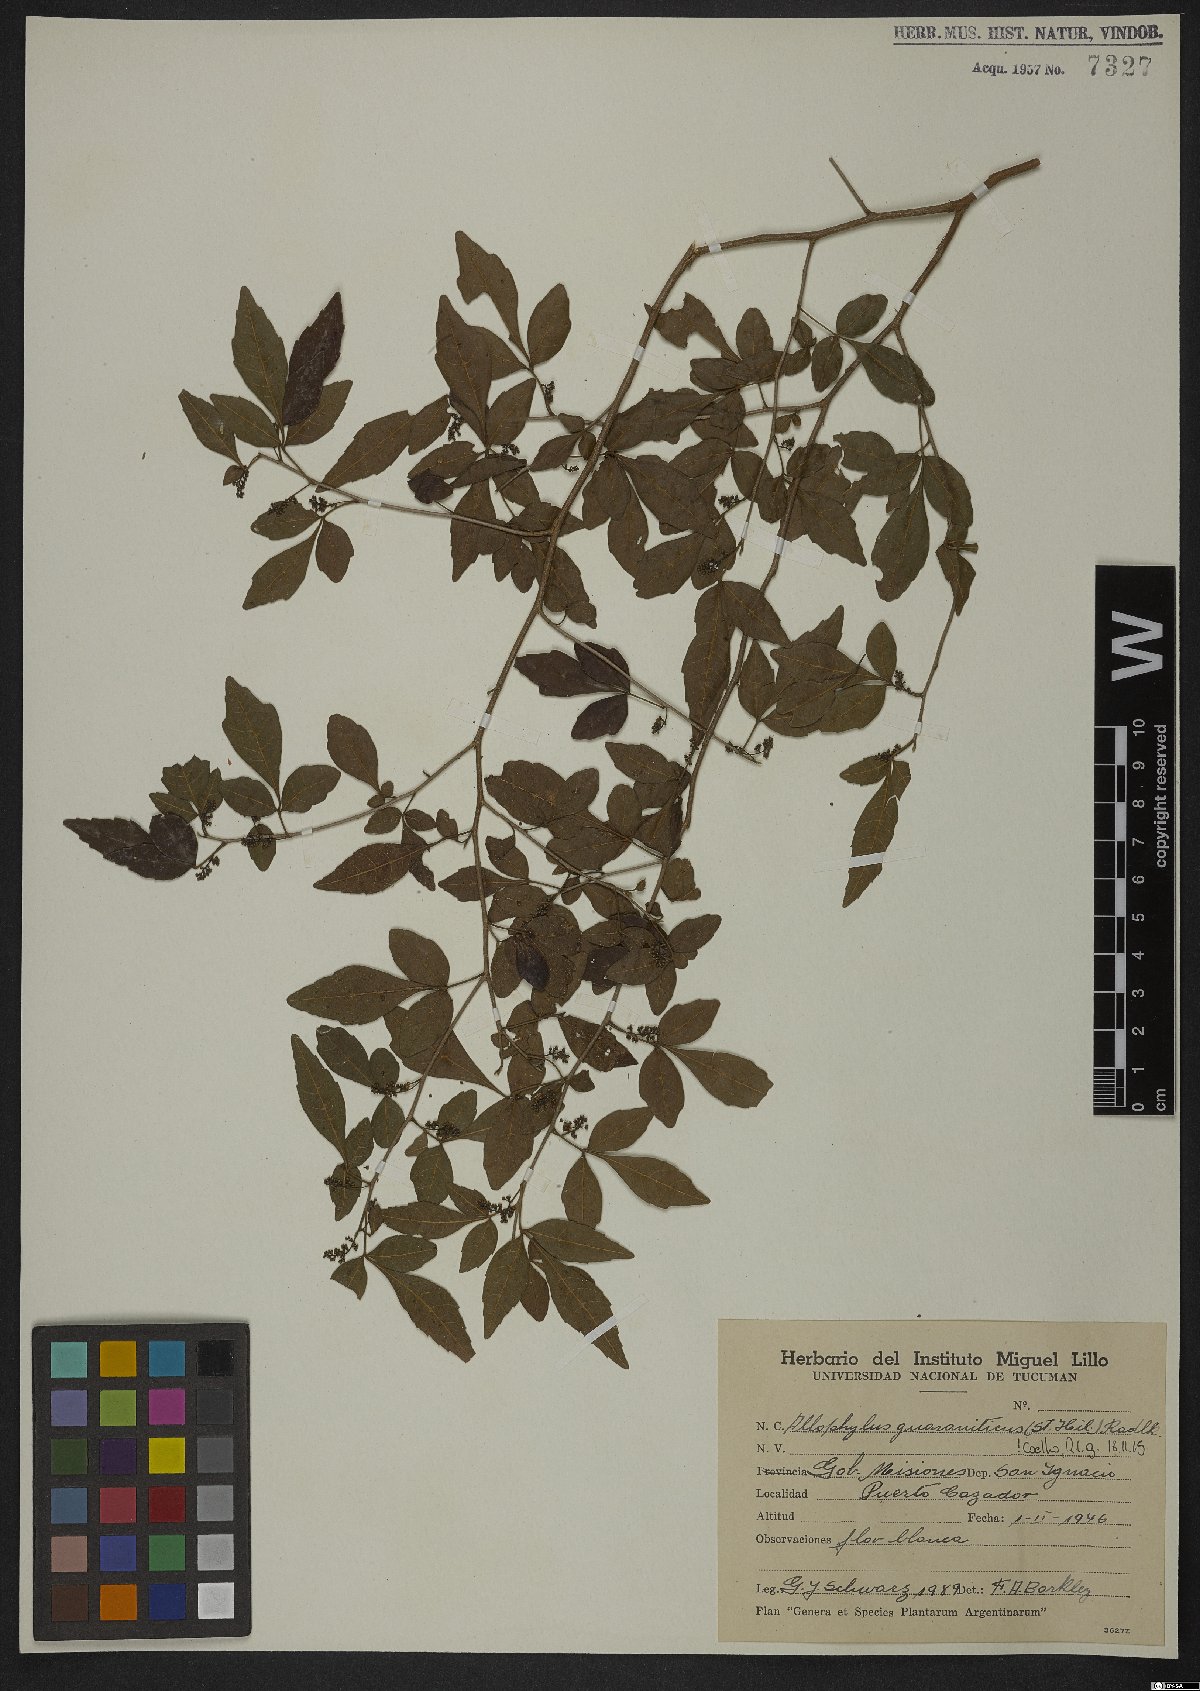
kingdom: Plantae
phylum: Tracheophyta
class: Magnoliopsida
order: Sapindales
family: Sapindaceae
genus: Allophylus
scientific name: Allophylus guaraniticus
